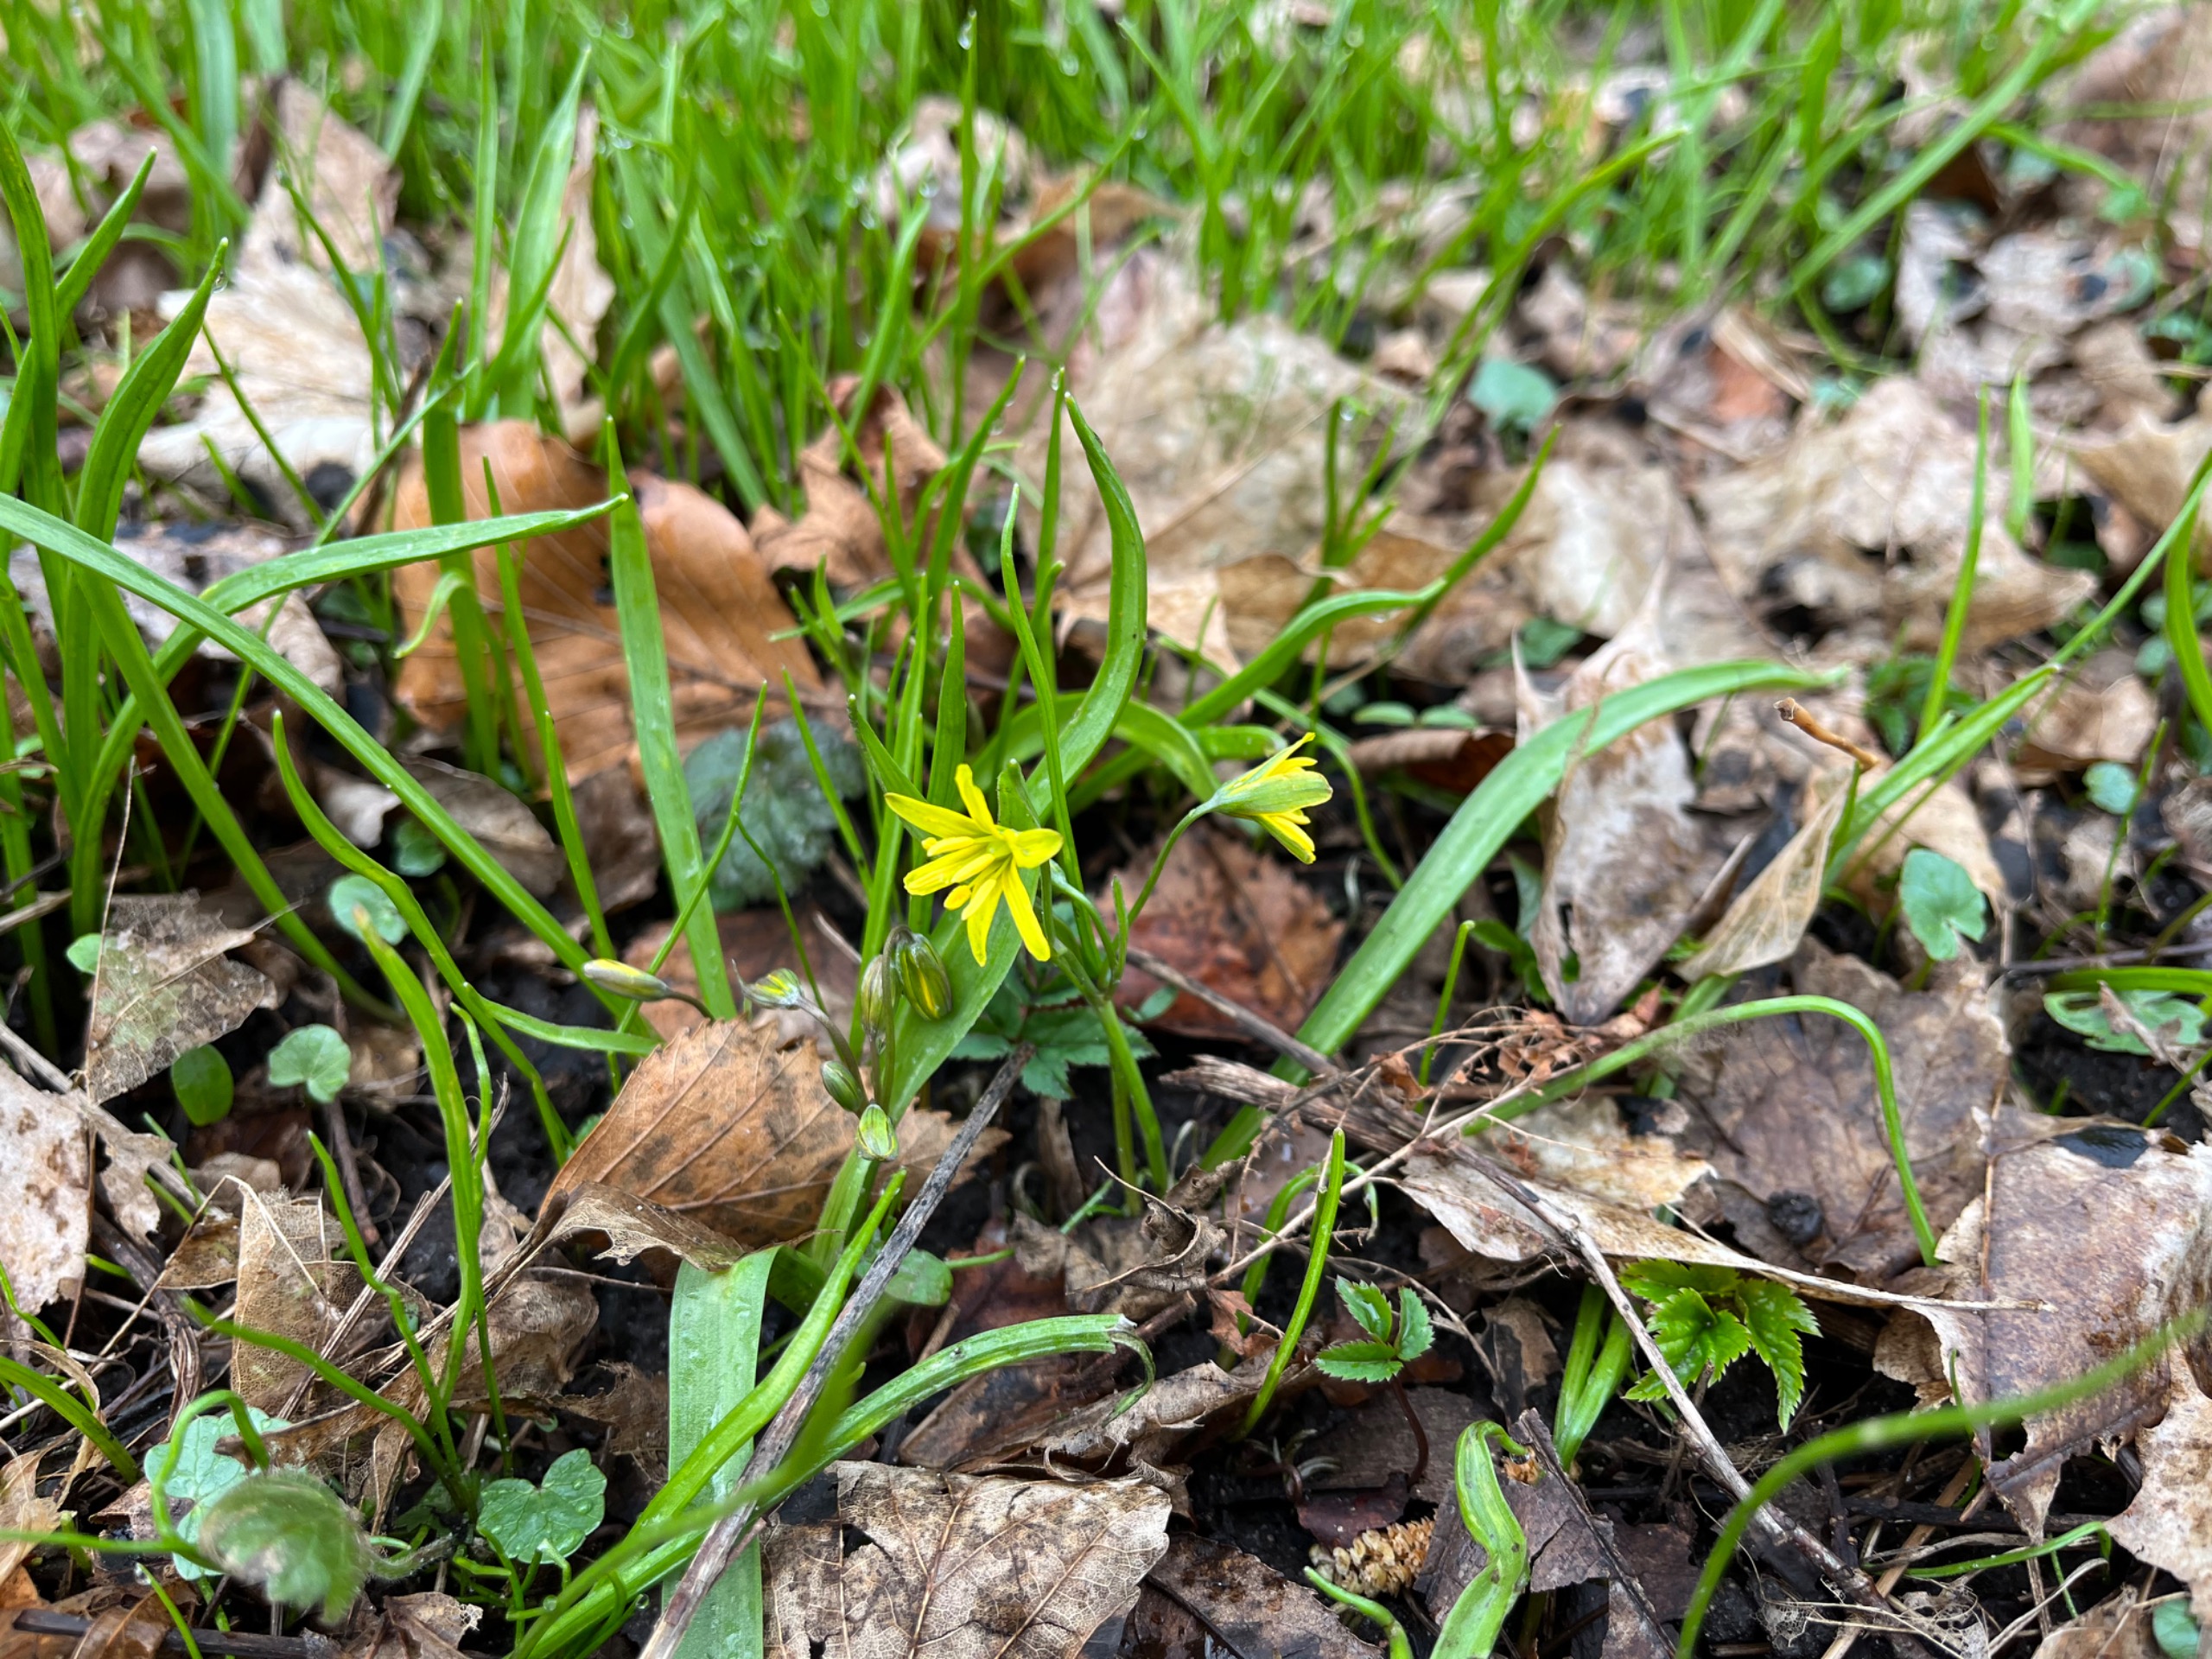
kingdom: Plantae
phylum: Tracheophyta
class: Liliopsida
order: Liliales
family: Liliaceae
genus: Gagea
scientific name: Gagea lutea
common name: Almindelig guldstjerne
